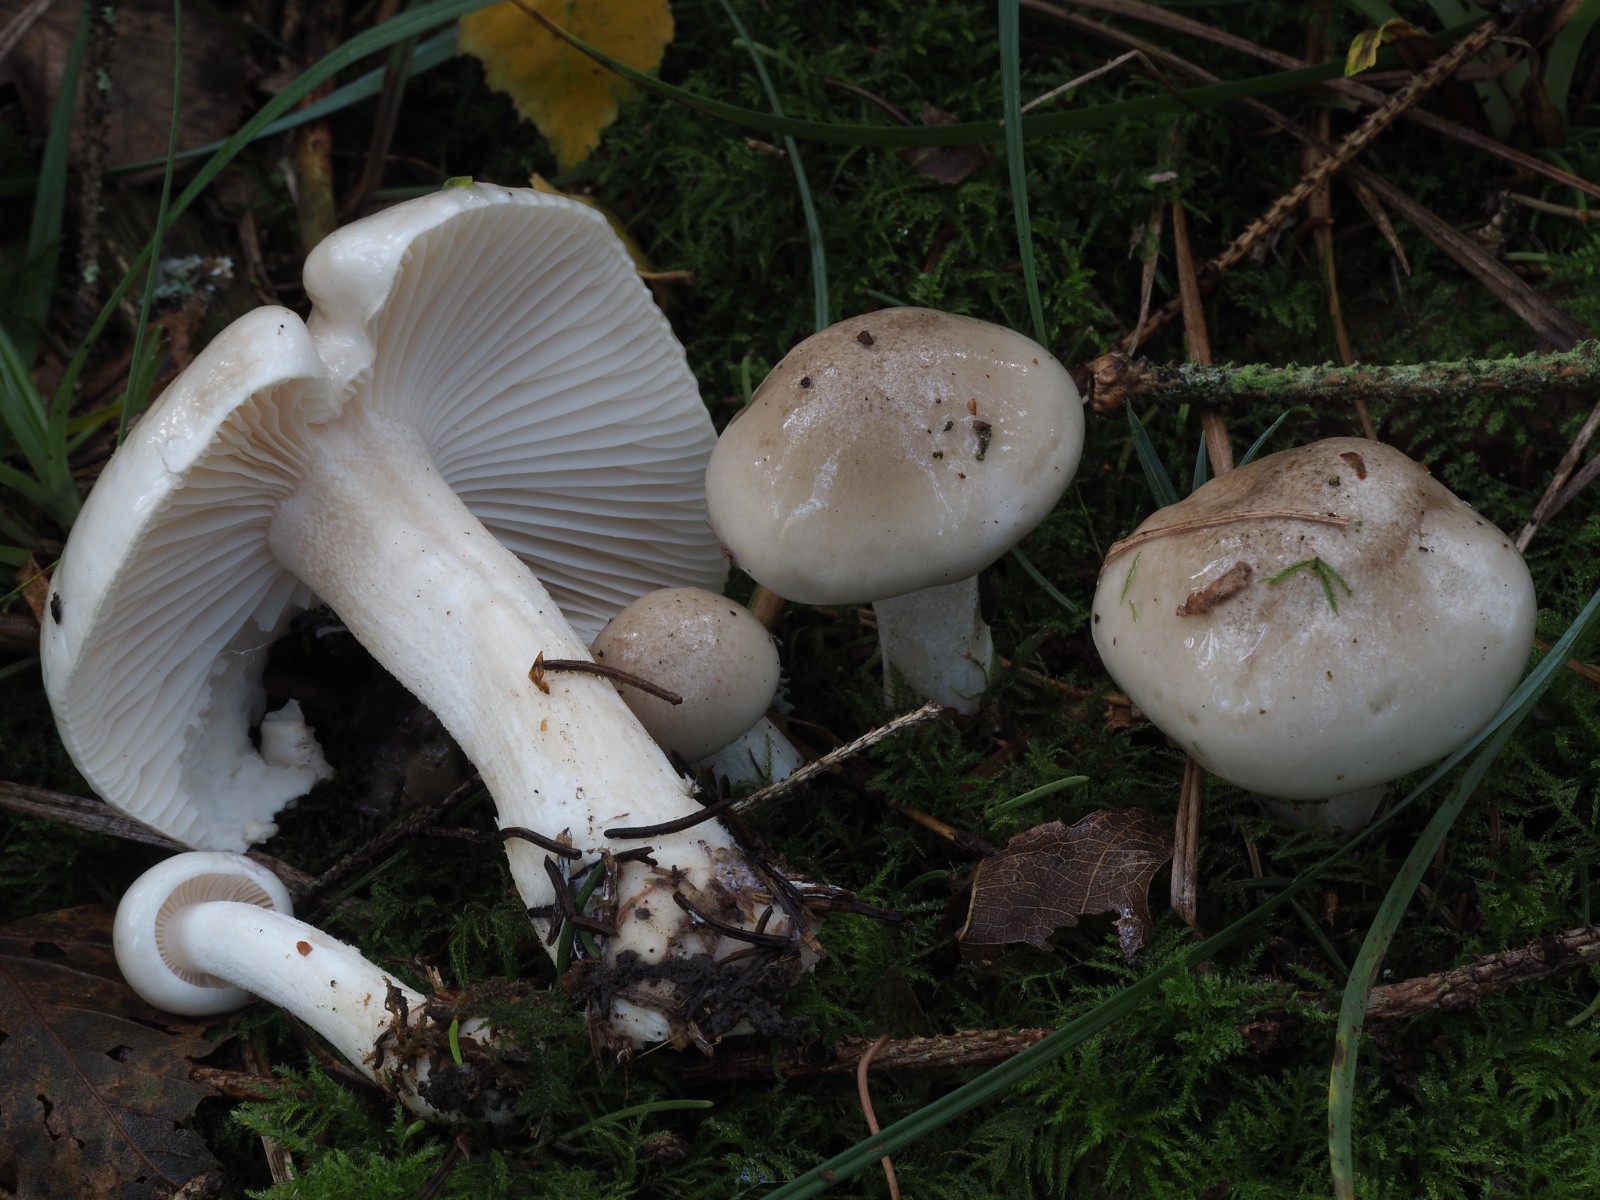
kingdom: Fungi
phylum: Basidiomycota
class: Agaricomycetes
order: Agaricales
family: Hygrophoraceae
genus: Hygrophorus
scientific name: Hygrophorus agathosmus
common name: vellugtende sneglehat
